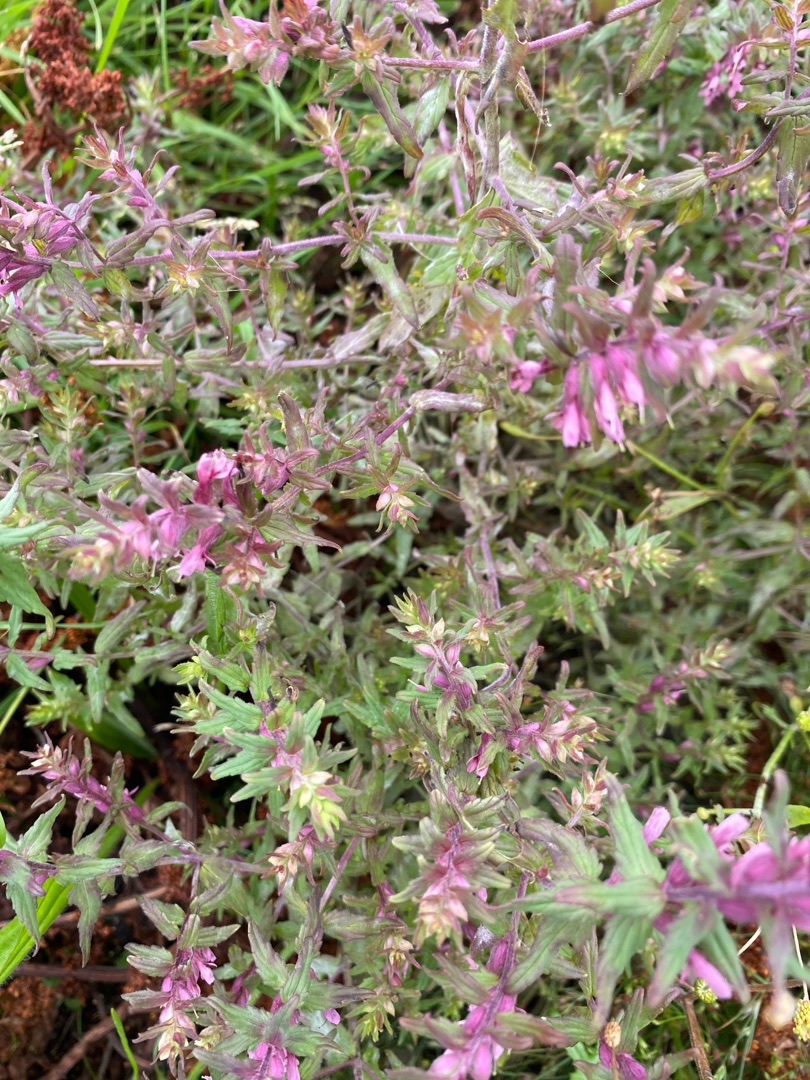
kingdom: Plantae
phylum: Tracheophyta
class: Magnoliopsida
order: Lamiales
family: Orobanchaceae
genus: Odontites
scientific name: Odontites vulgaris
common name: Høst-rødtop
